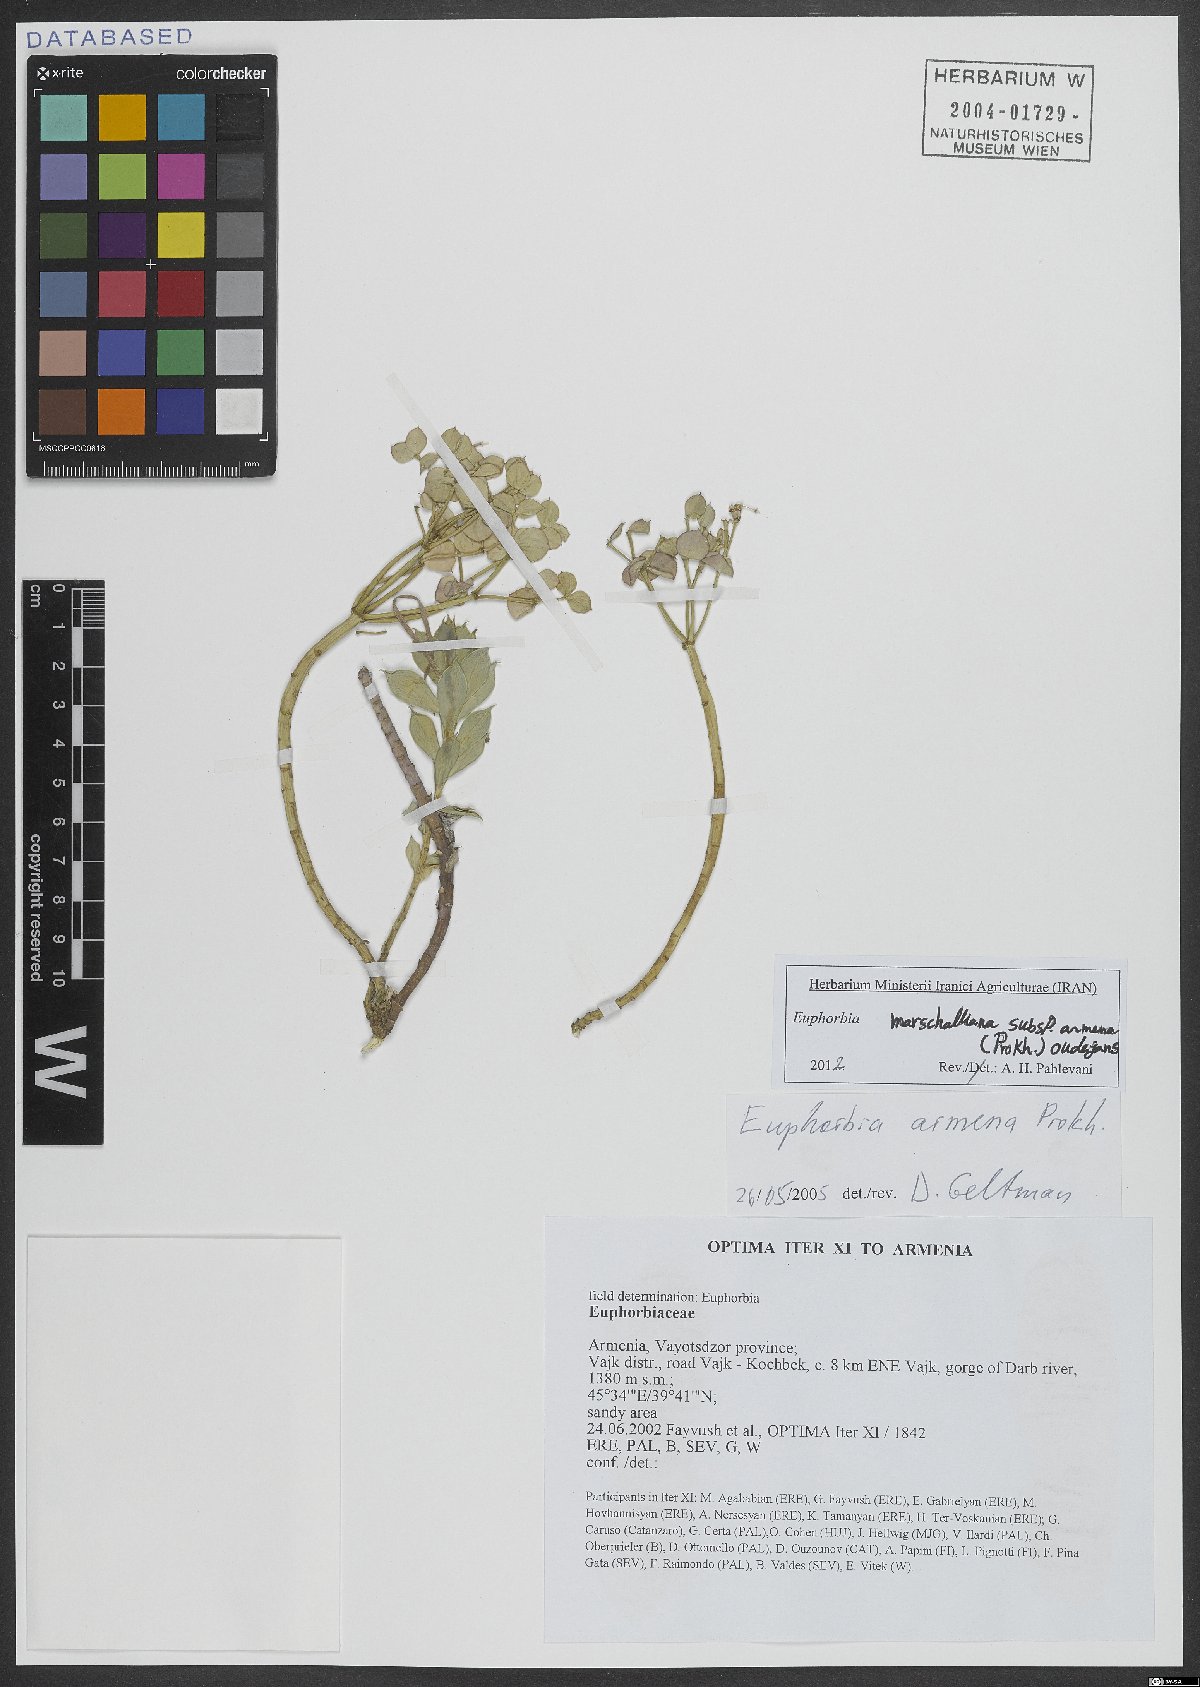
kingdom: Plantae
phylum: Tracheophyta
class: Magnoliopsida
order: Malpighiales
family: Euphorbiaceae
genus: Euphorbia
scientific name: Euphorbia marschalliana
